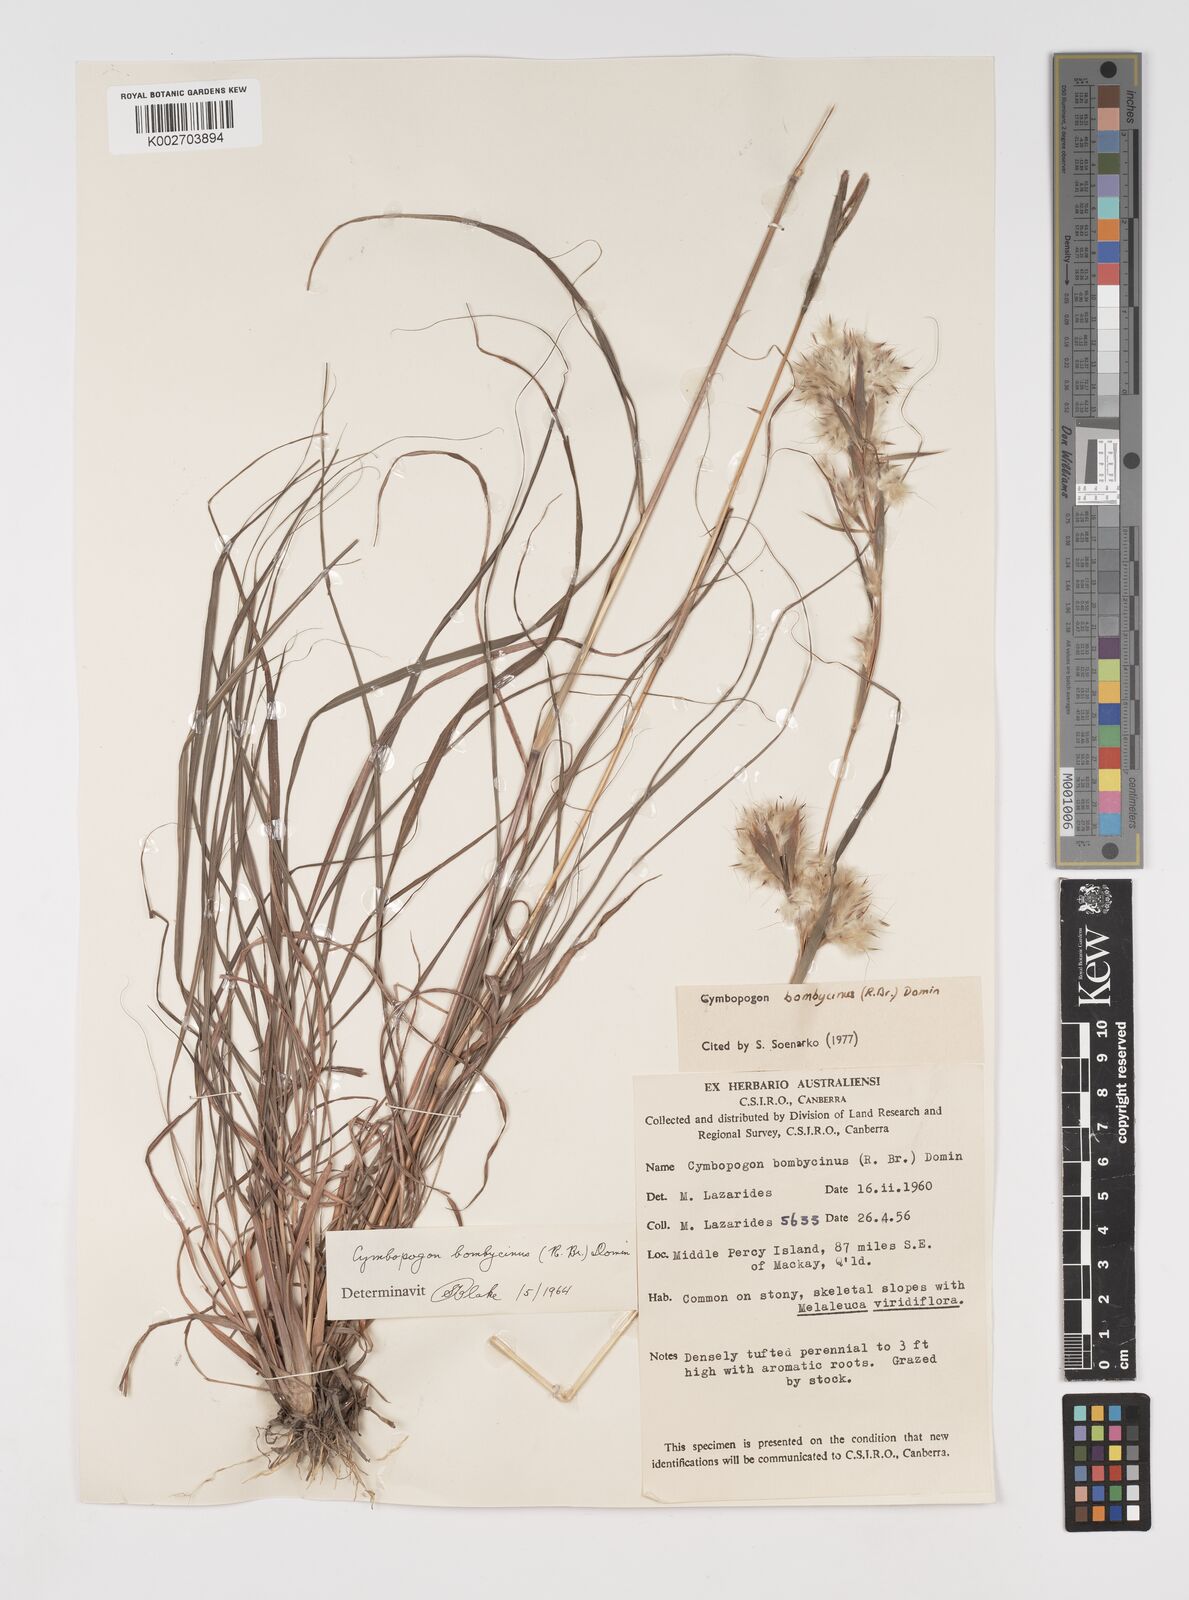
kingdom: Plantae
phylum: Tracheophyta
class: Liliopsida
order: Poales
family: Poaceae
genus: Cymbopogon
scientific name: Cymbopogon bombycinus
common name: Citronella grass
